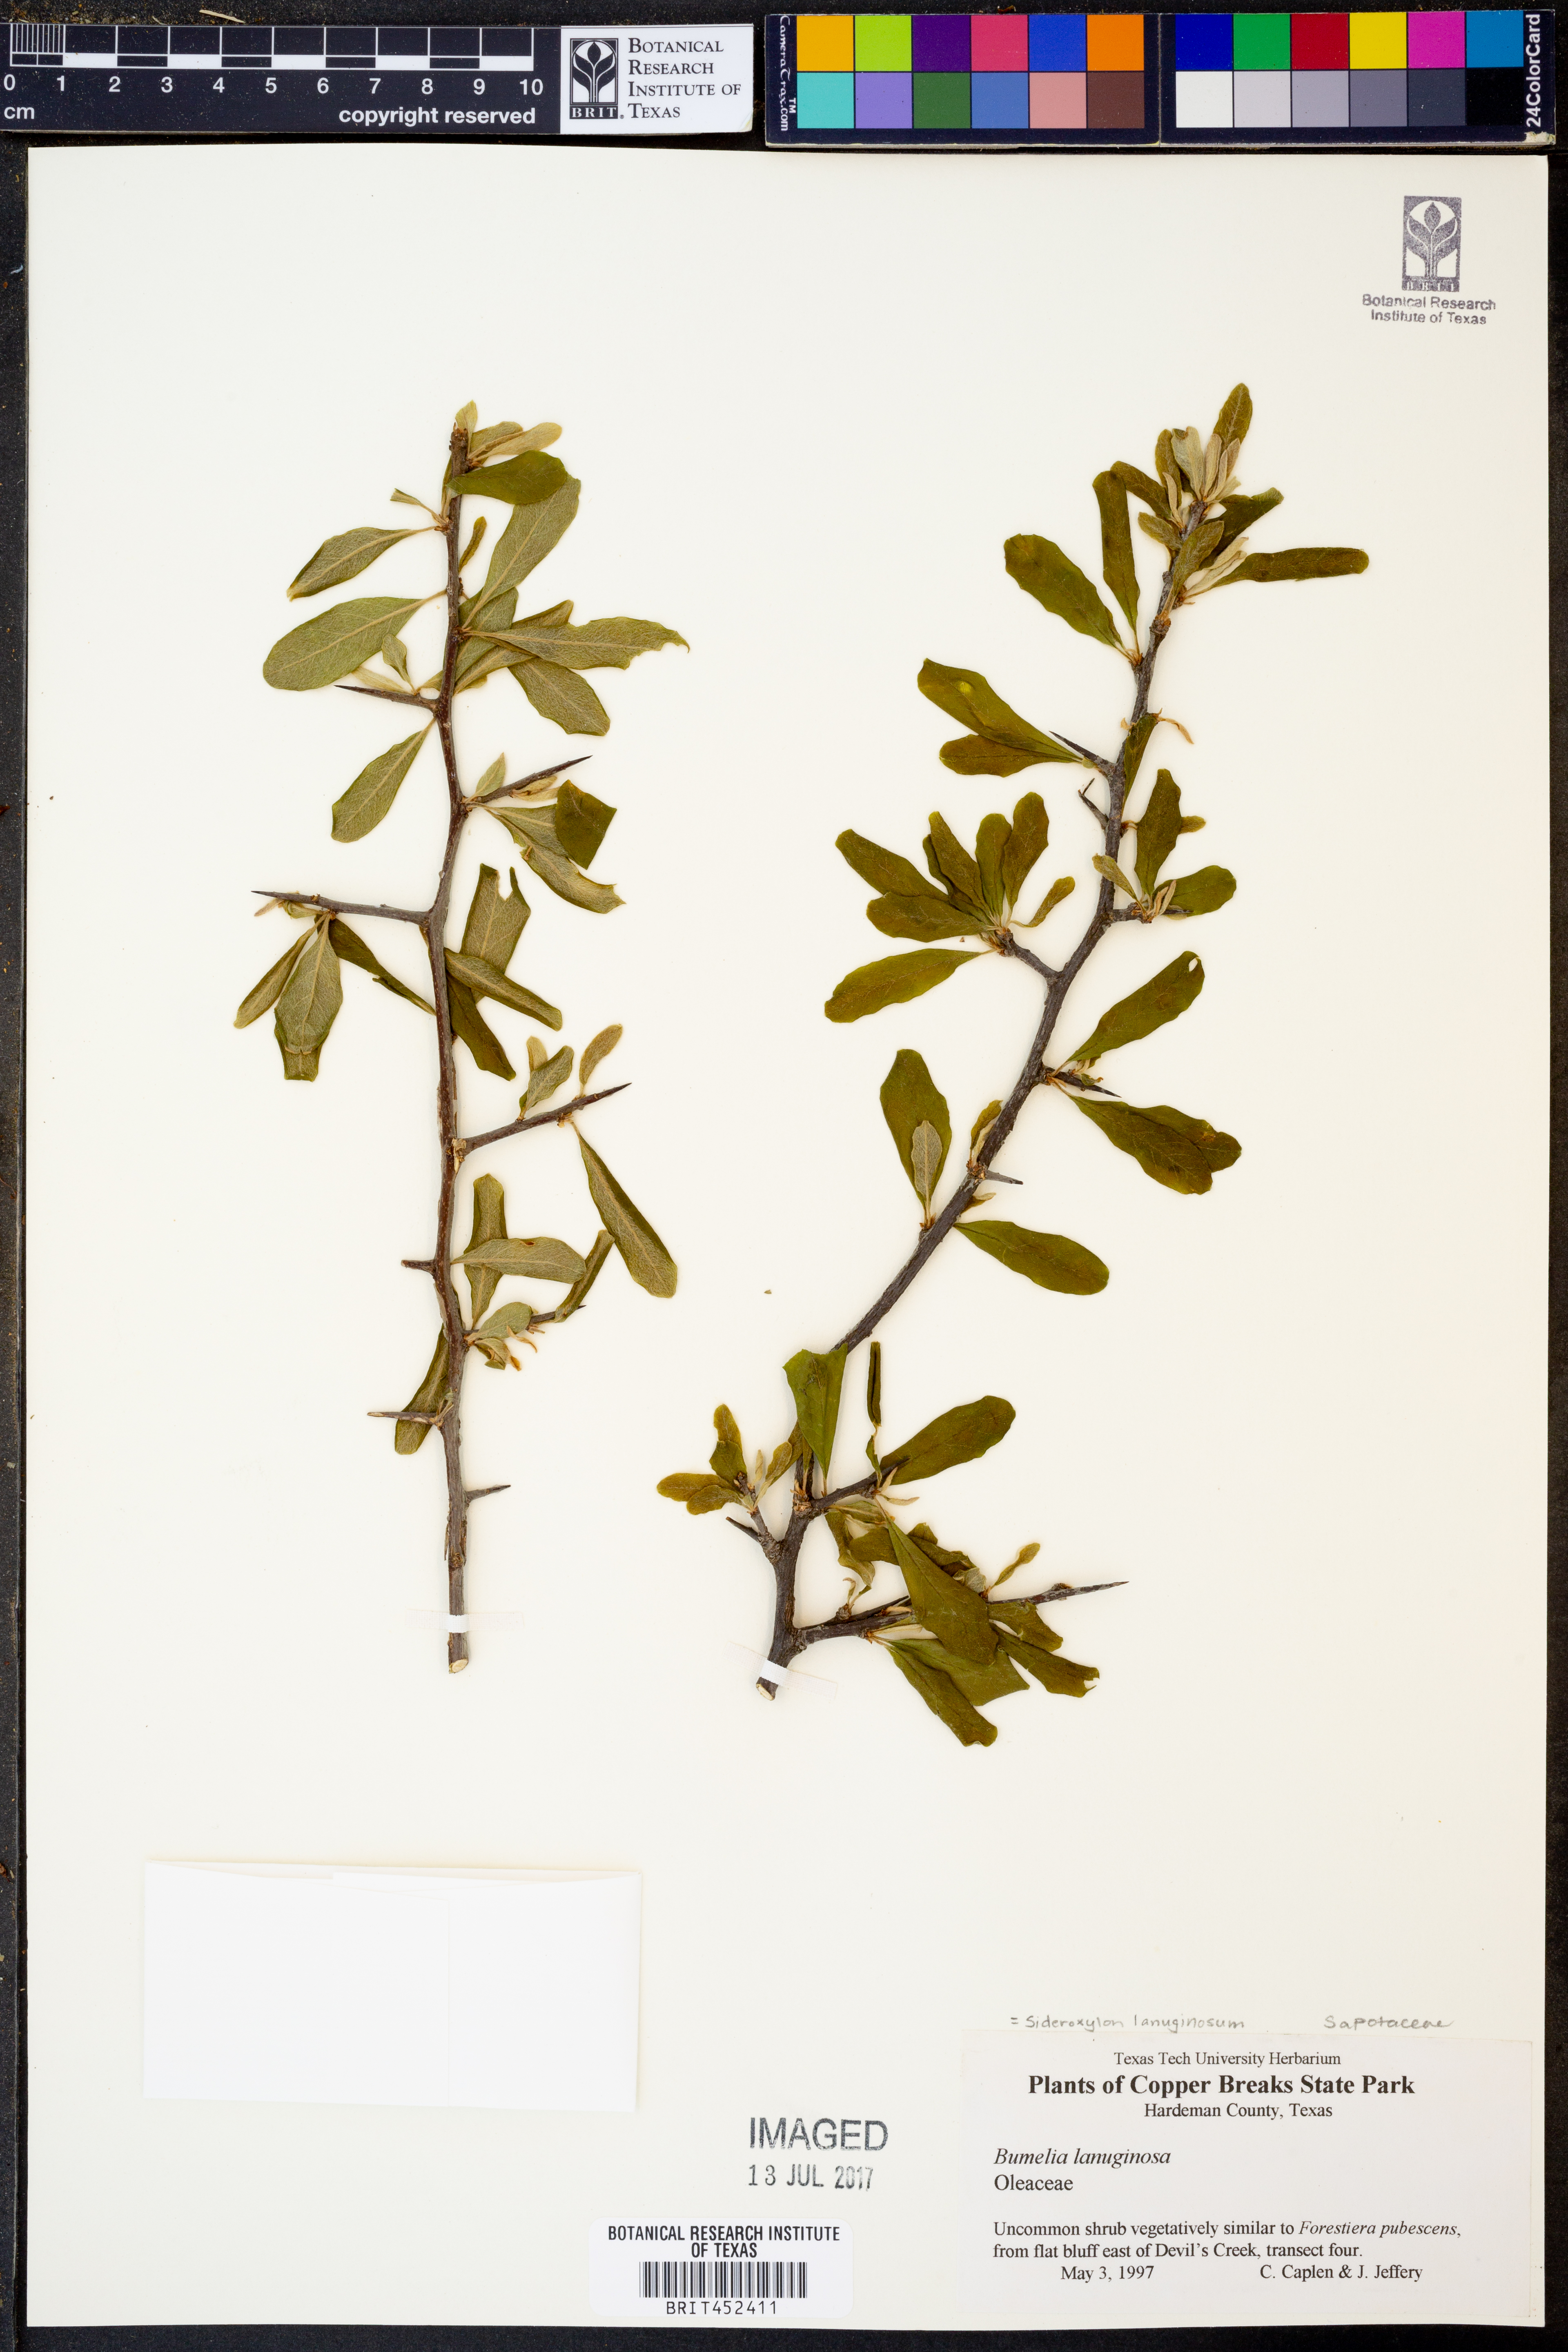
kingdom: Plantae
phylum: Tracheophyta
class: Magnoliopsida
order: Ericales
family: Sapotaceae
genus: Sideroxylon
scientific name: Sideroxylon lanuginosum
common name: Chittamwood
